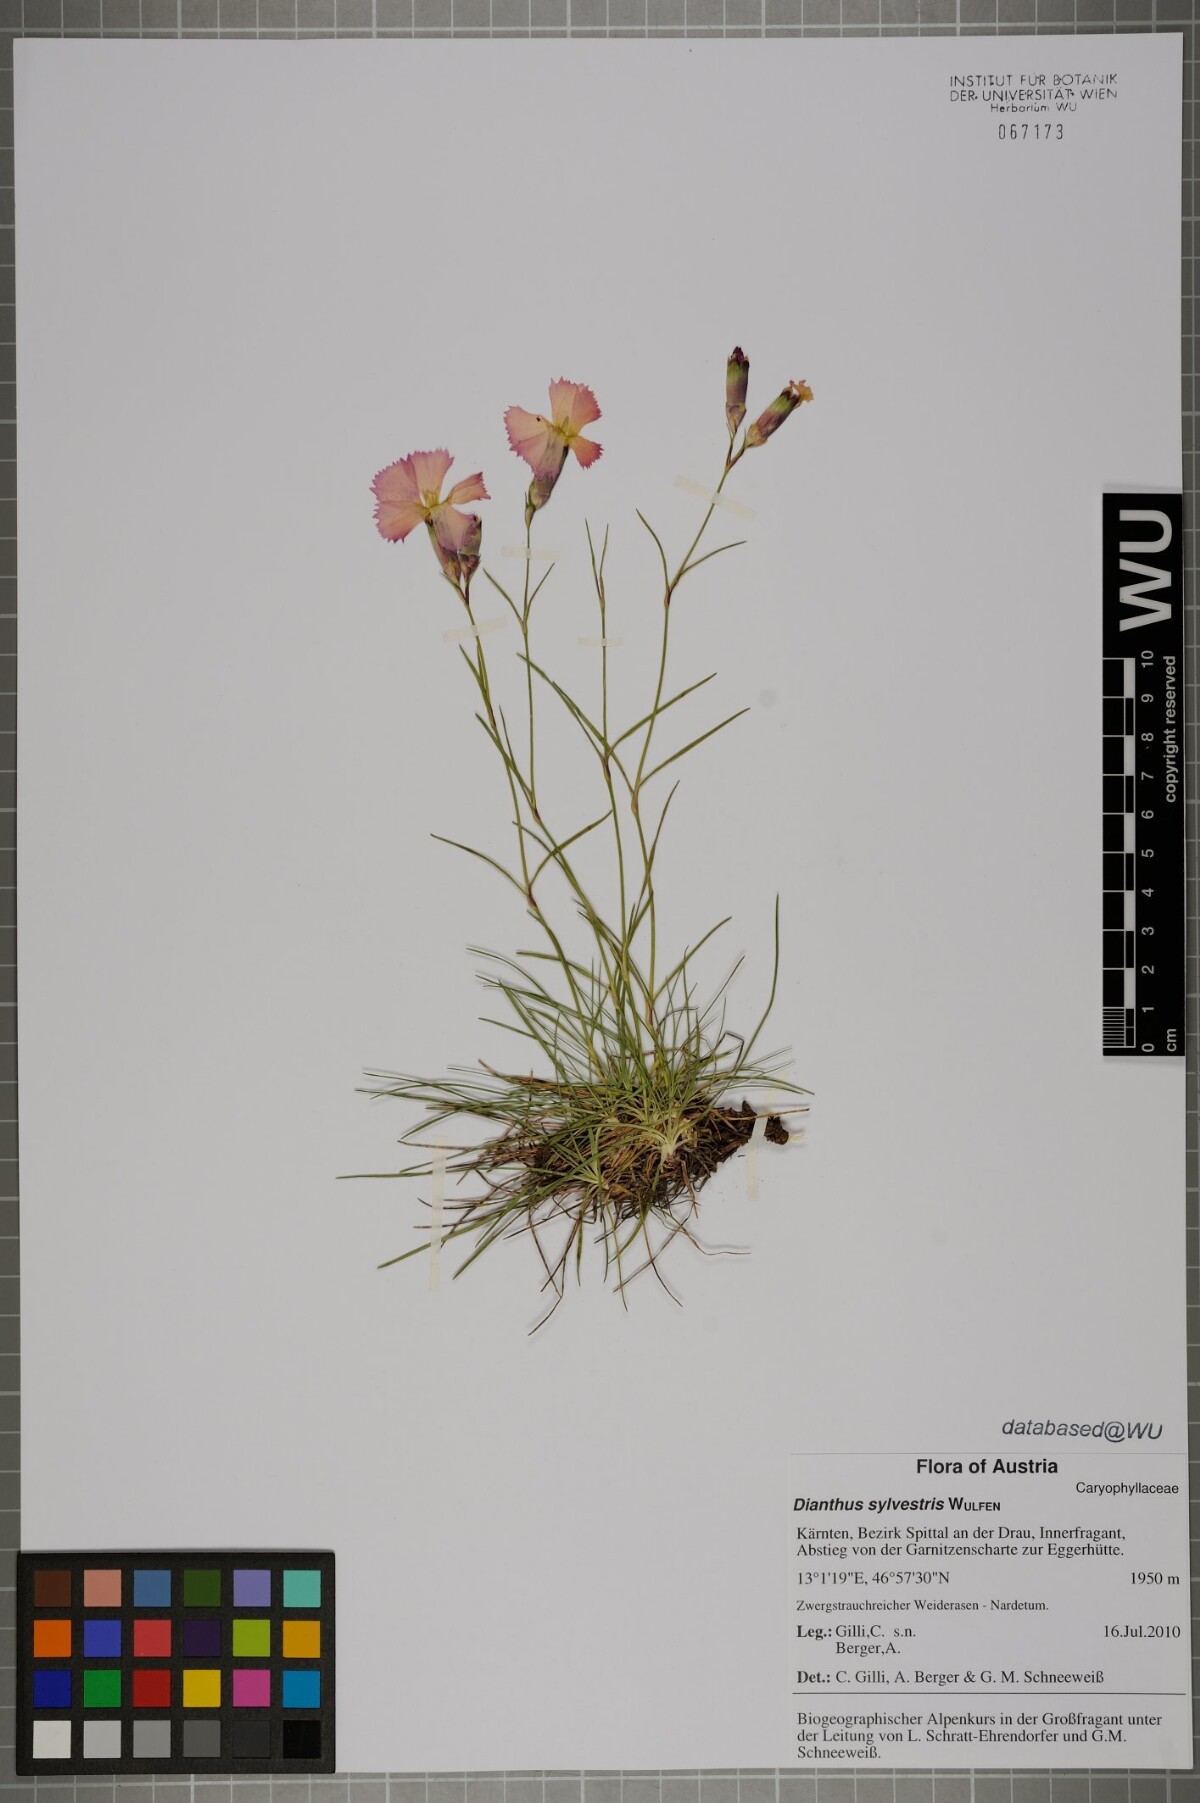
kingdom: Plantae
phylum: Tracheophyta
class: Magnoliopsida
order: Caryophyllales
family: Caryophyllaceae
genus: Dianthus
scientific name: Dianthus sylvestris
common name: Wood pink
